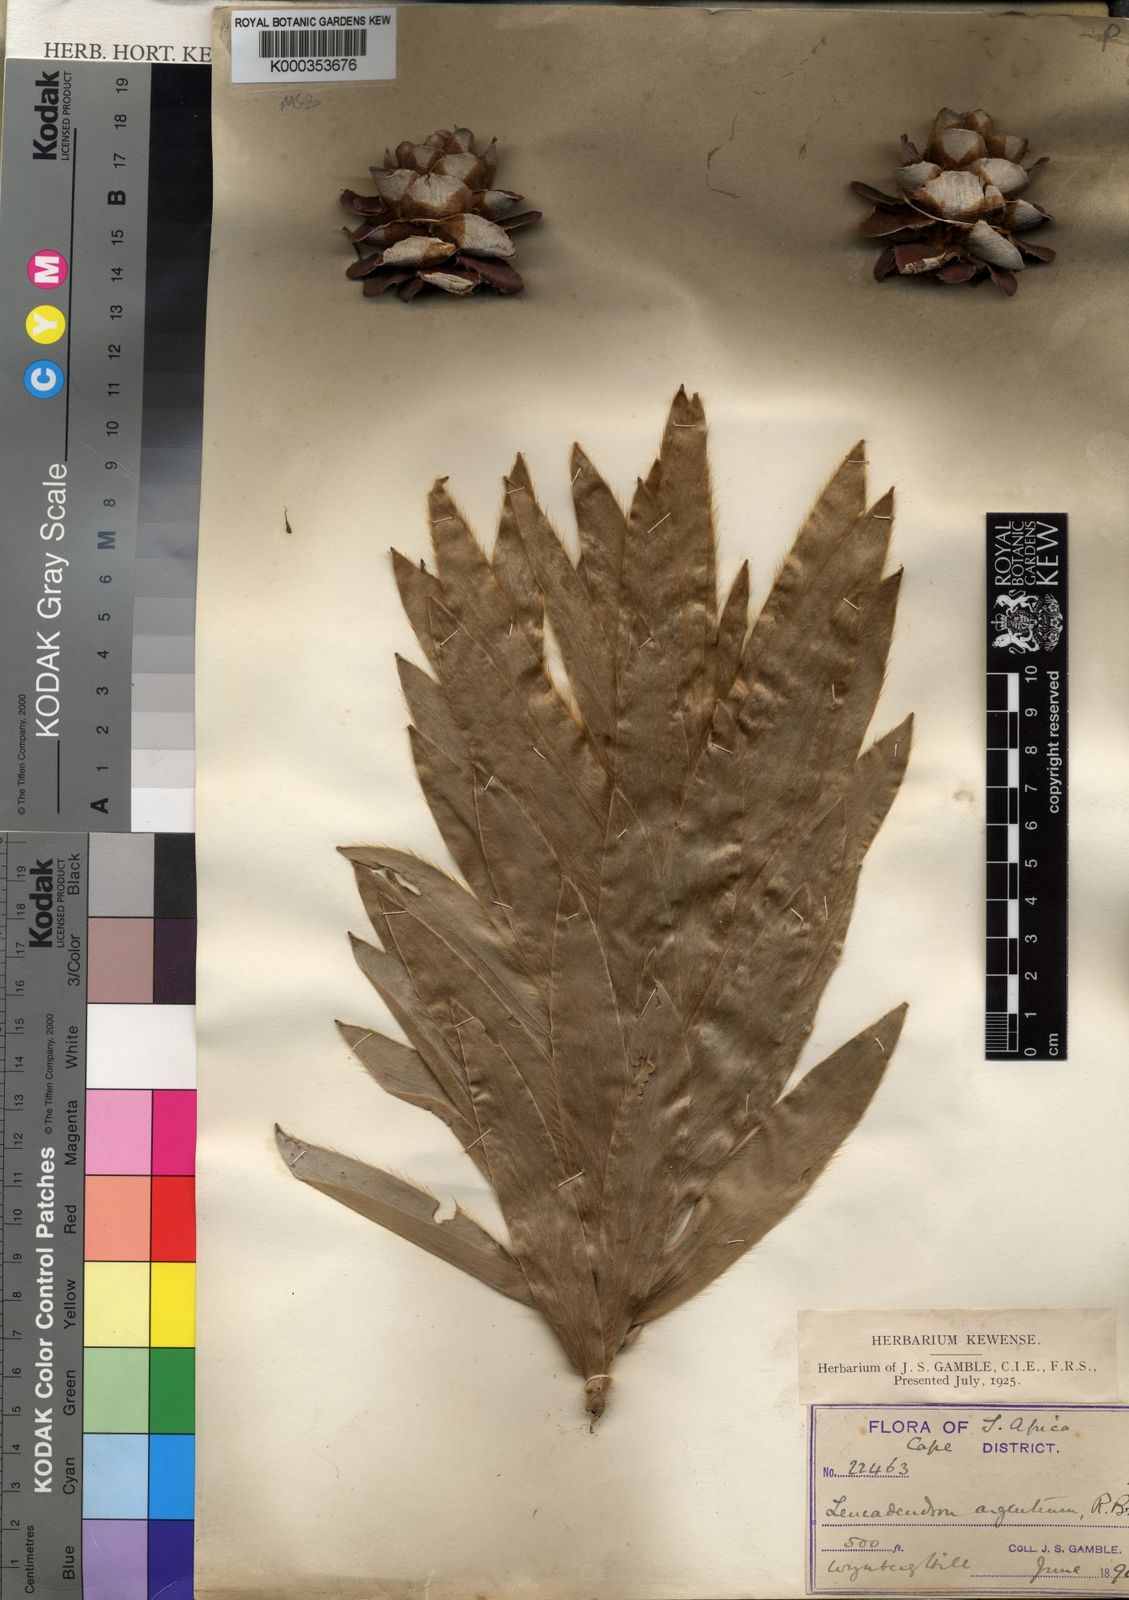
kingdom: Plantae
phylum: Tracheophyta
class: Magnoliopsida
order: Proteales
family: Proteaceae
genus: Leucadendron
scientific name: Leucadendron argenteum
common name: Cape silver tree
